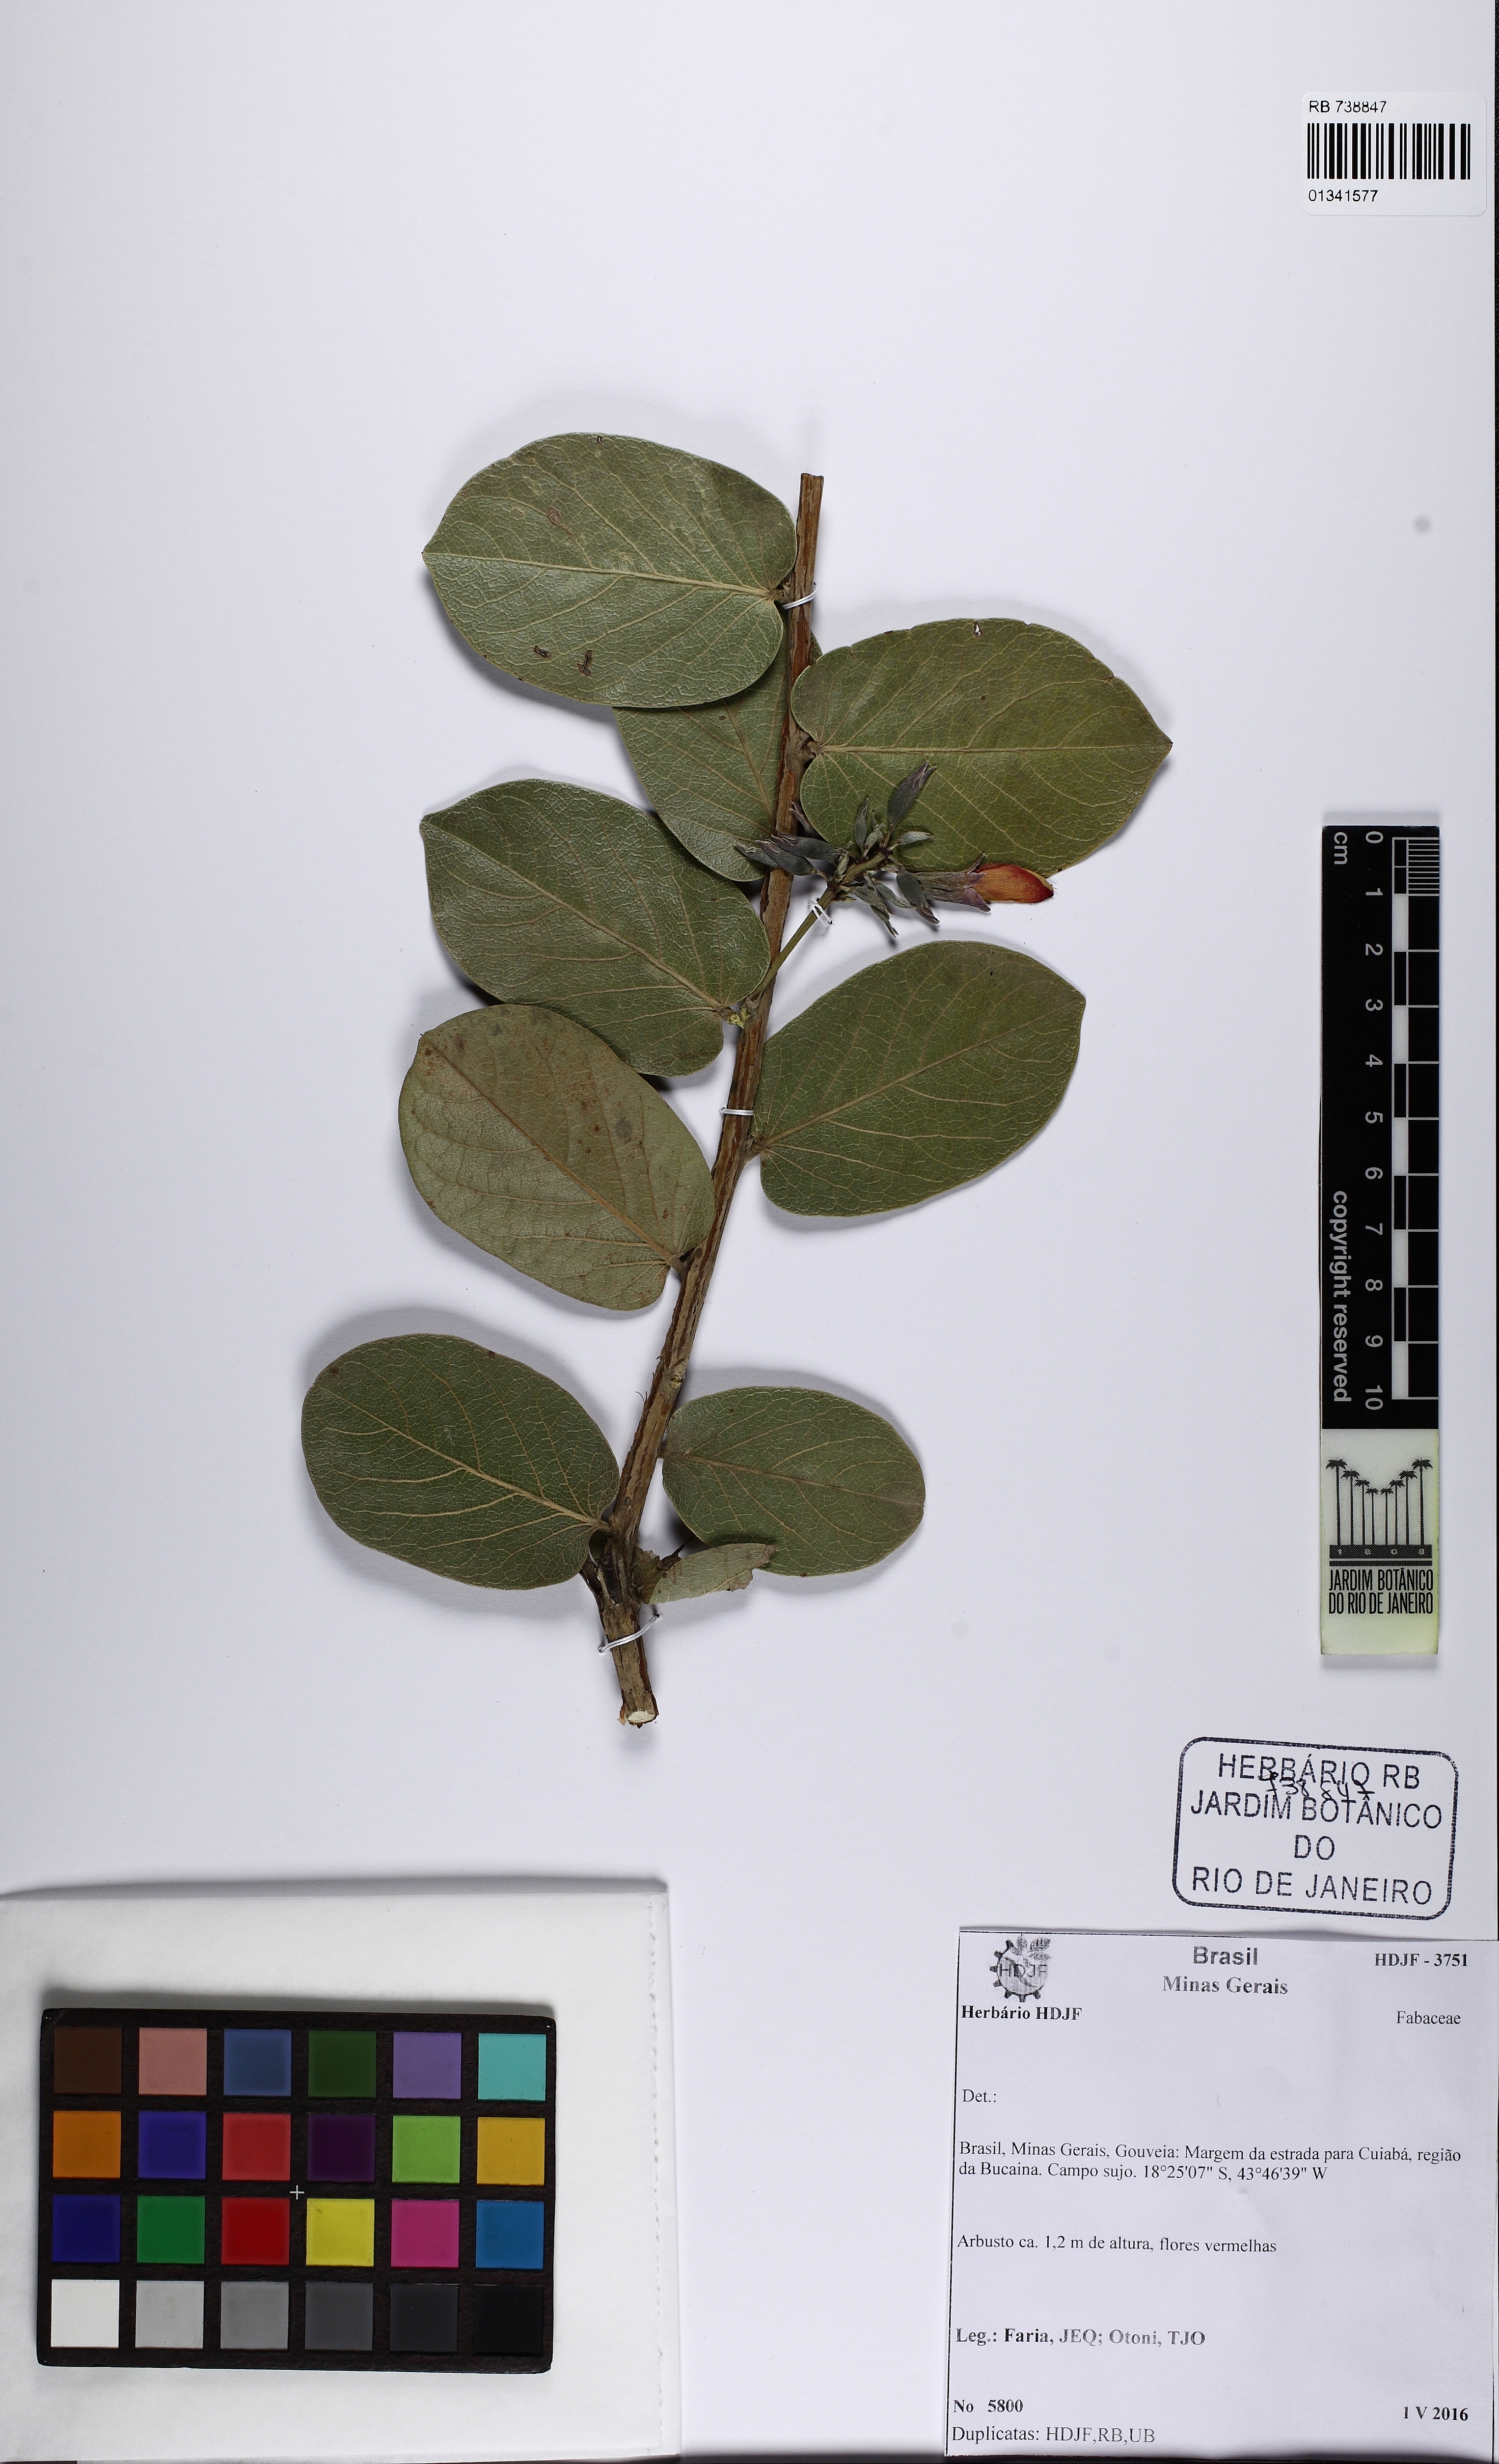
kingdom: Plantae
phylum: Tracheophyta
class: Magnoliopsida
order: Fabales
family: Fabaceae
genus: Camptosema
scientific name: Camptosema
